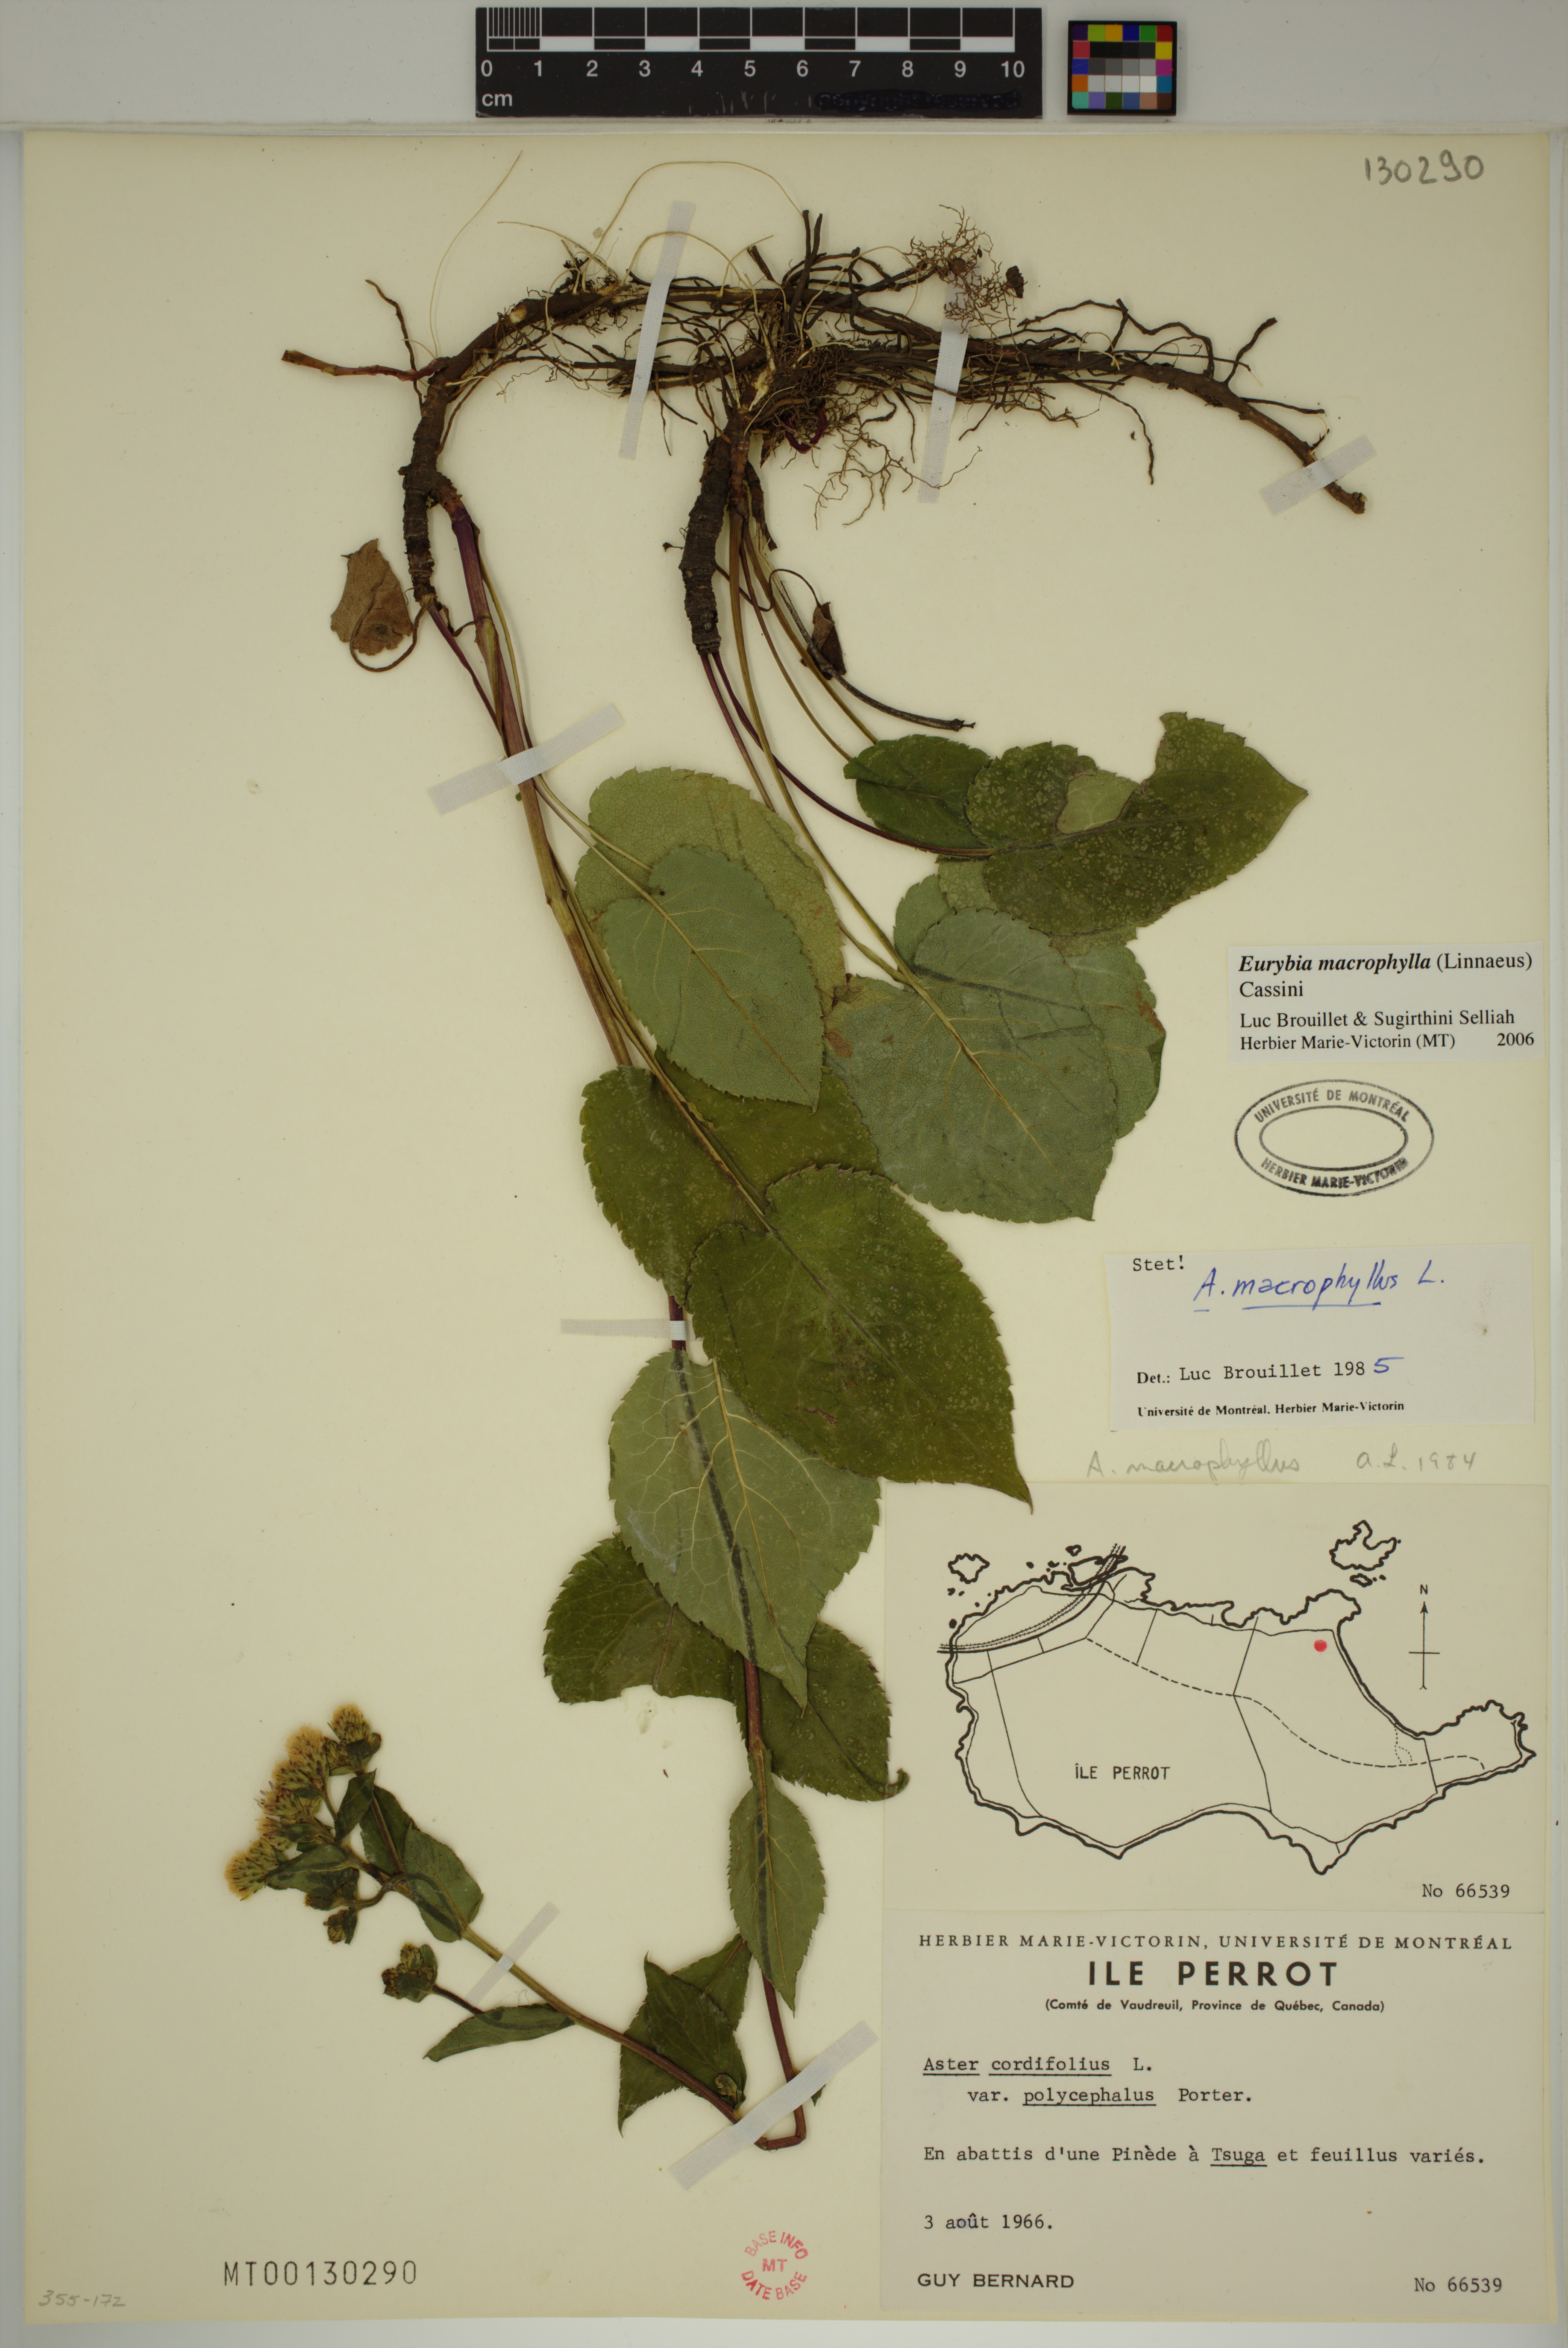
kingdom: Plantae
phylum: Tracheophyta
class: Magnoliopsida
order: Asterales
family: Asteraceae
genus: Eurybia
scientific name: Eurybia macrophylla
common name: Big-leaved aster
